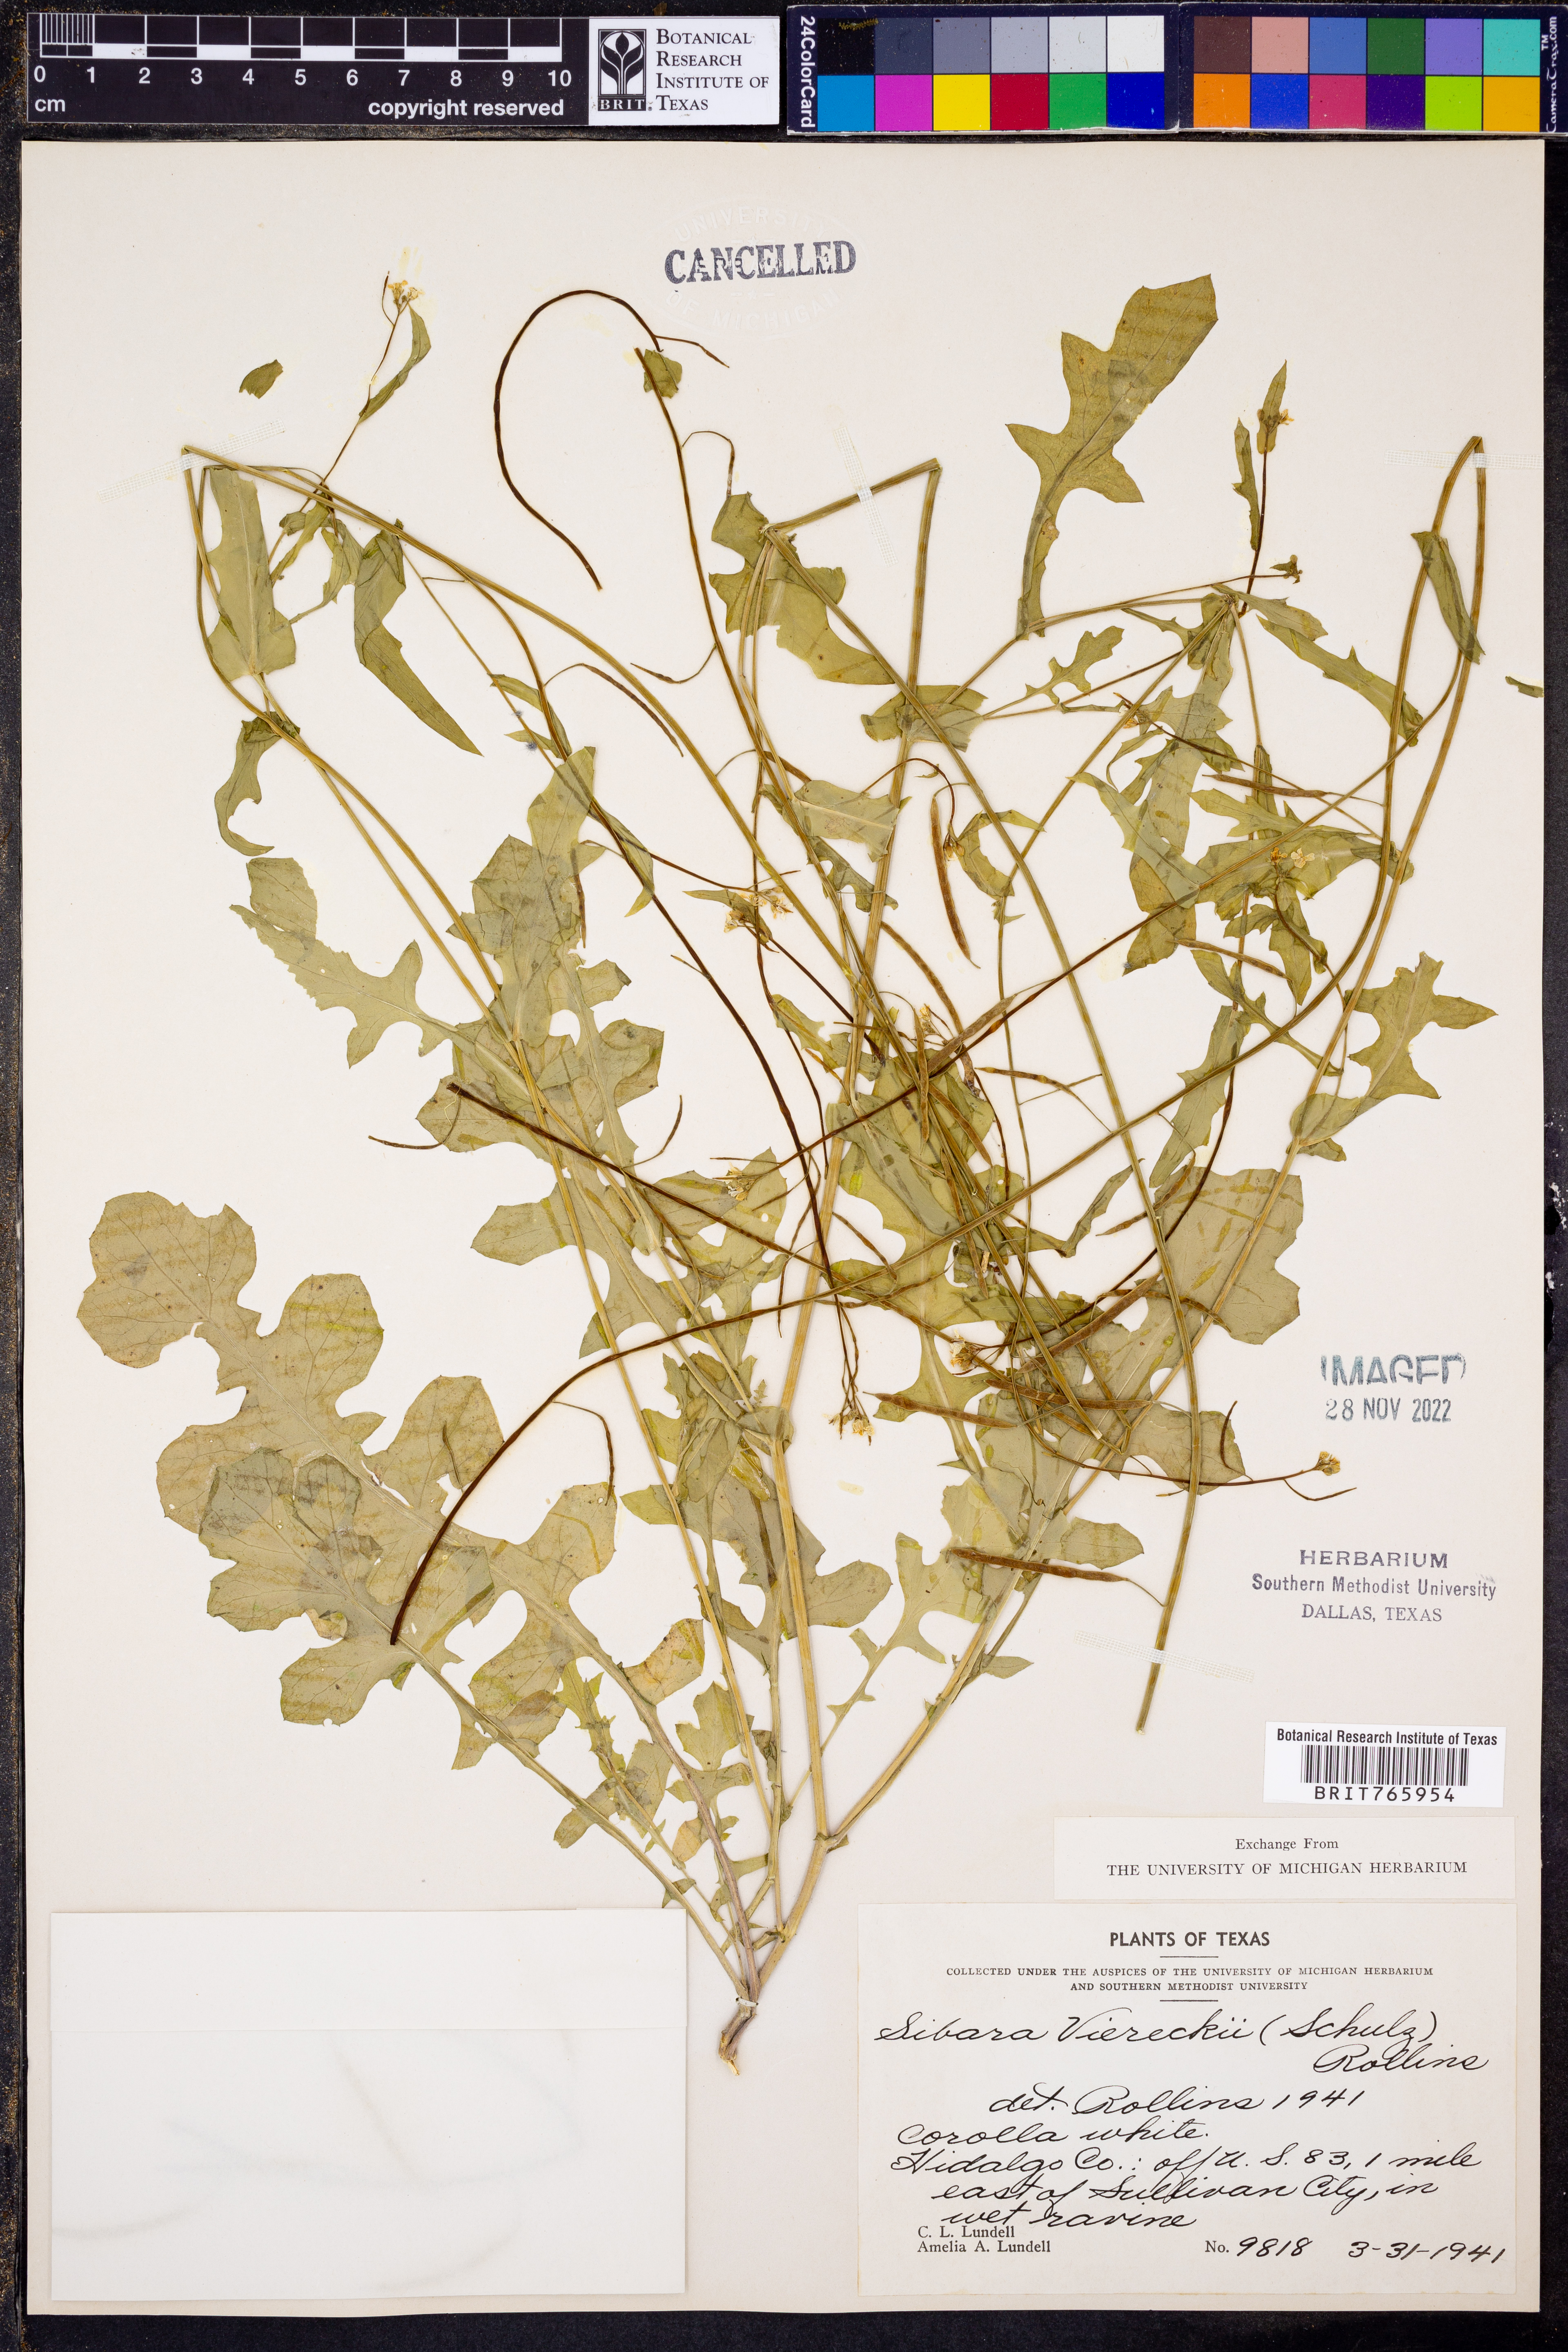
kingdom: Plantae
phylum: Tracheophyta
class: Magnoliopsida
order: Brassicales
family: Brassicaceae
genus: Phravenia
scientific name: Phravenia viereckii
